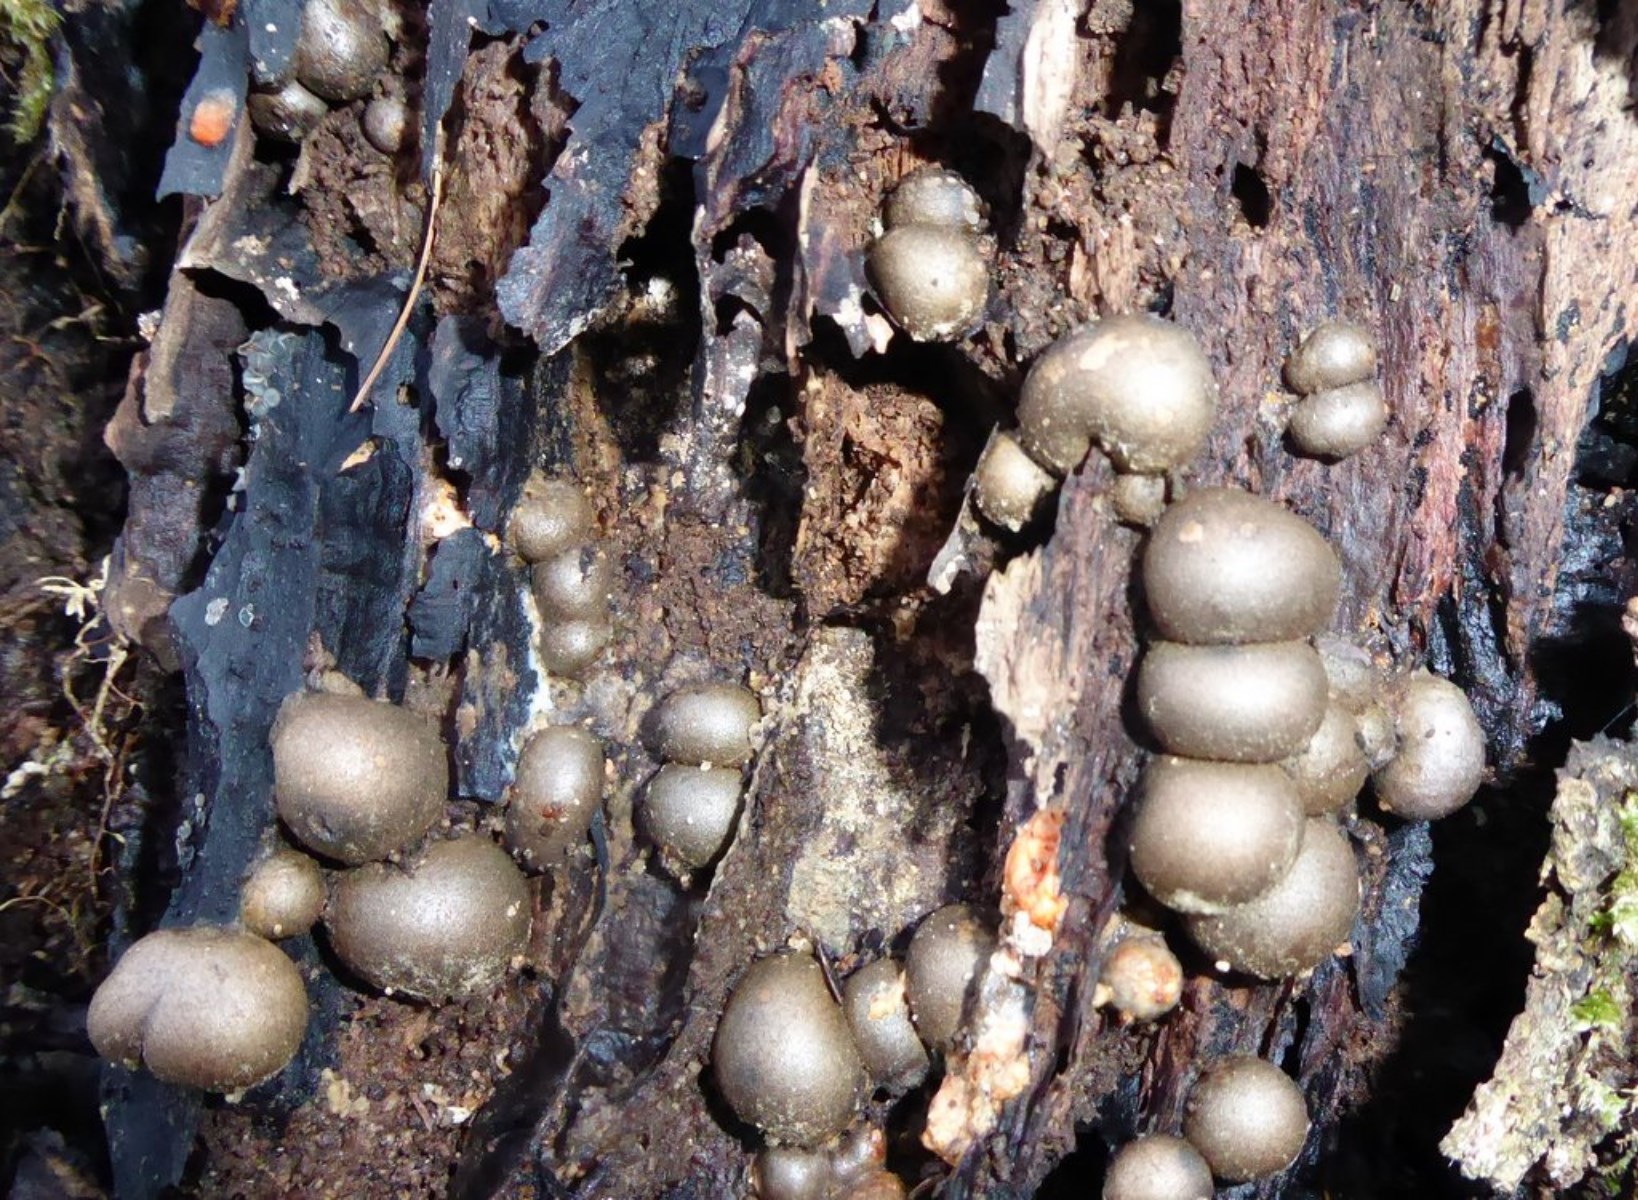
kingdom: Protozoa
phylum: Mycetozoa
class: Myxomycetes
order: Cribrariales
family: Tubiferaceae
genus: Lycogala
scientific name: Lycogala epidendrum
